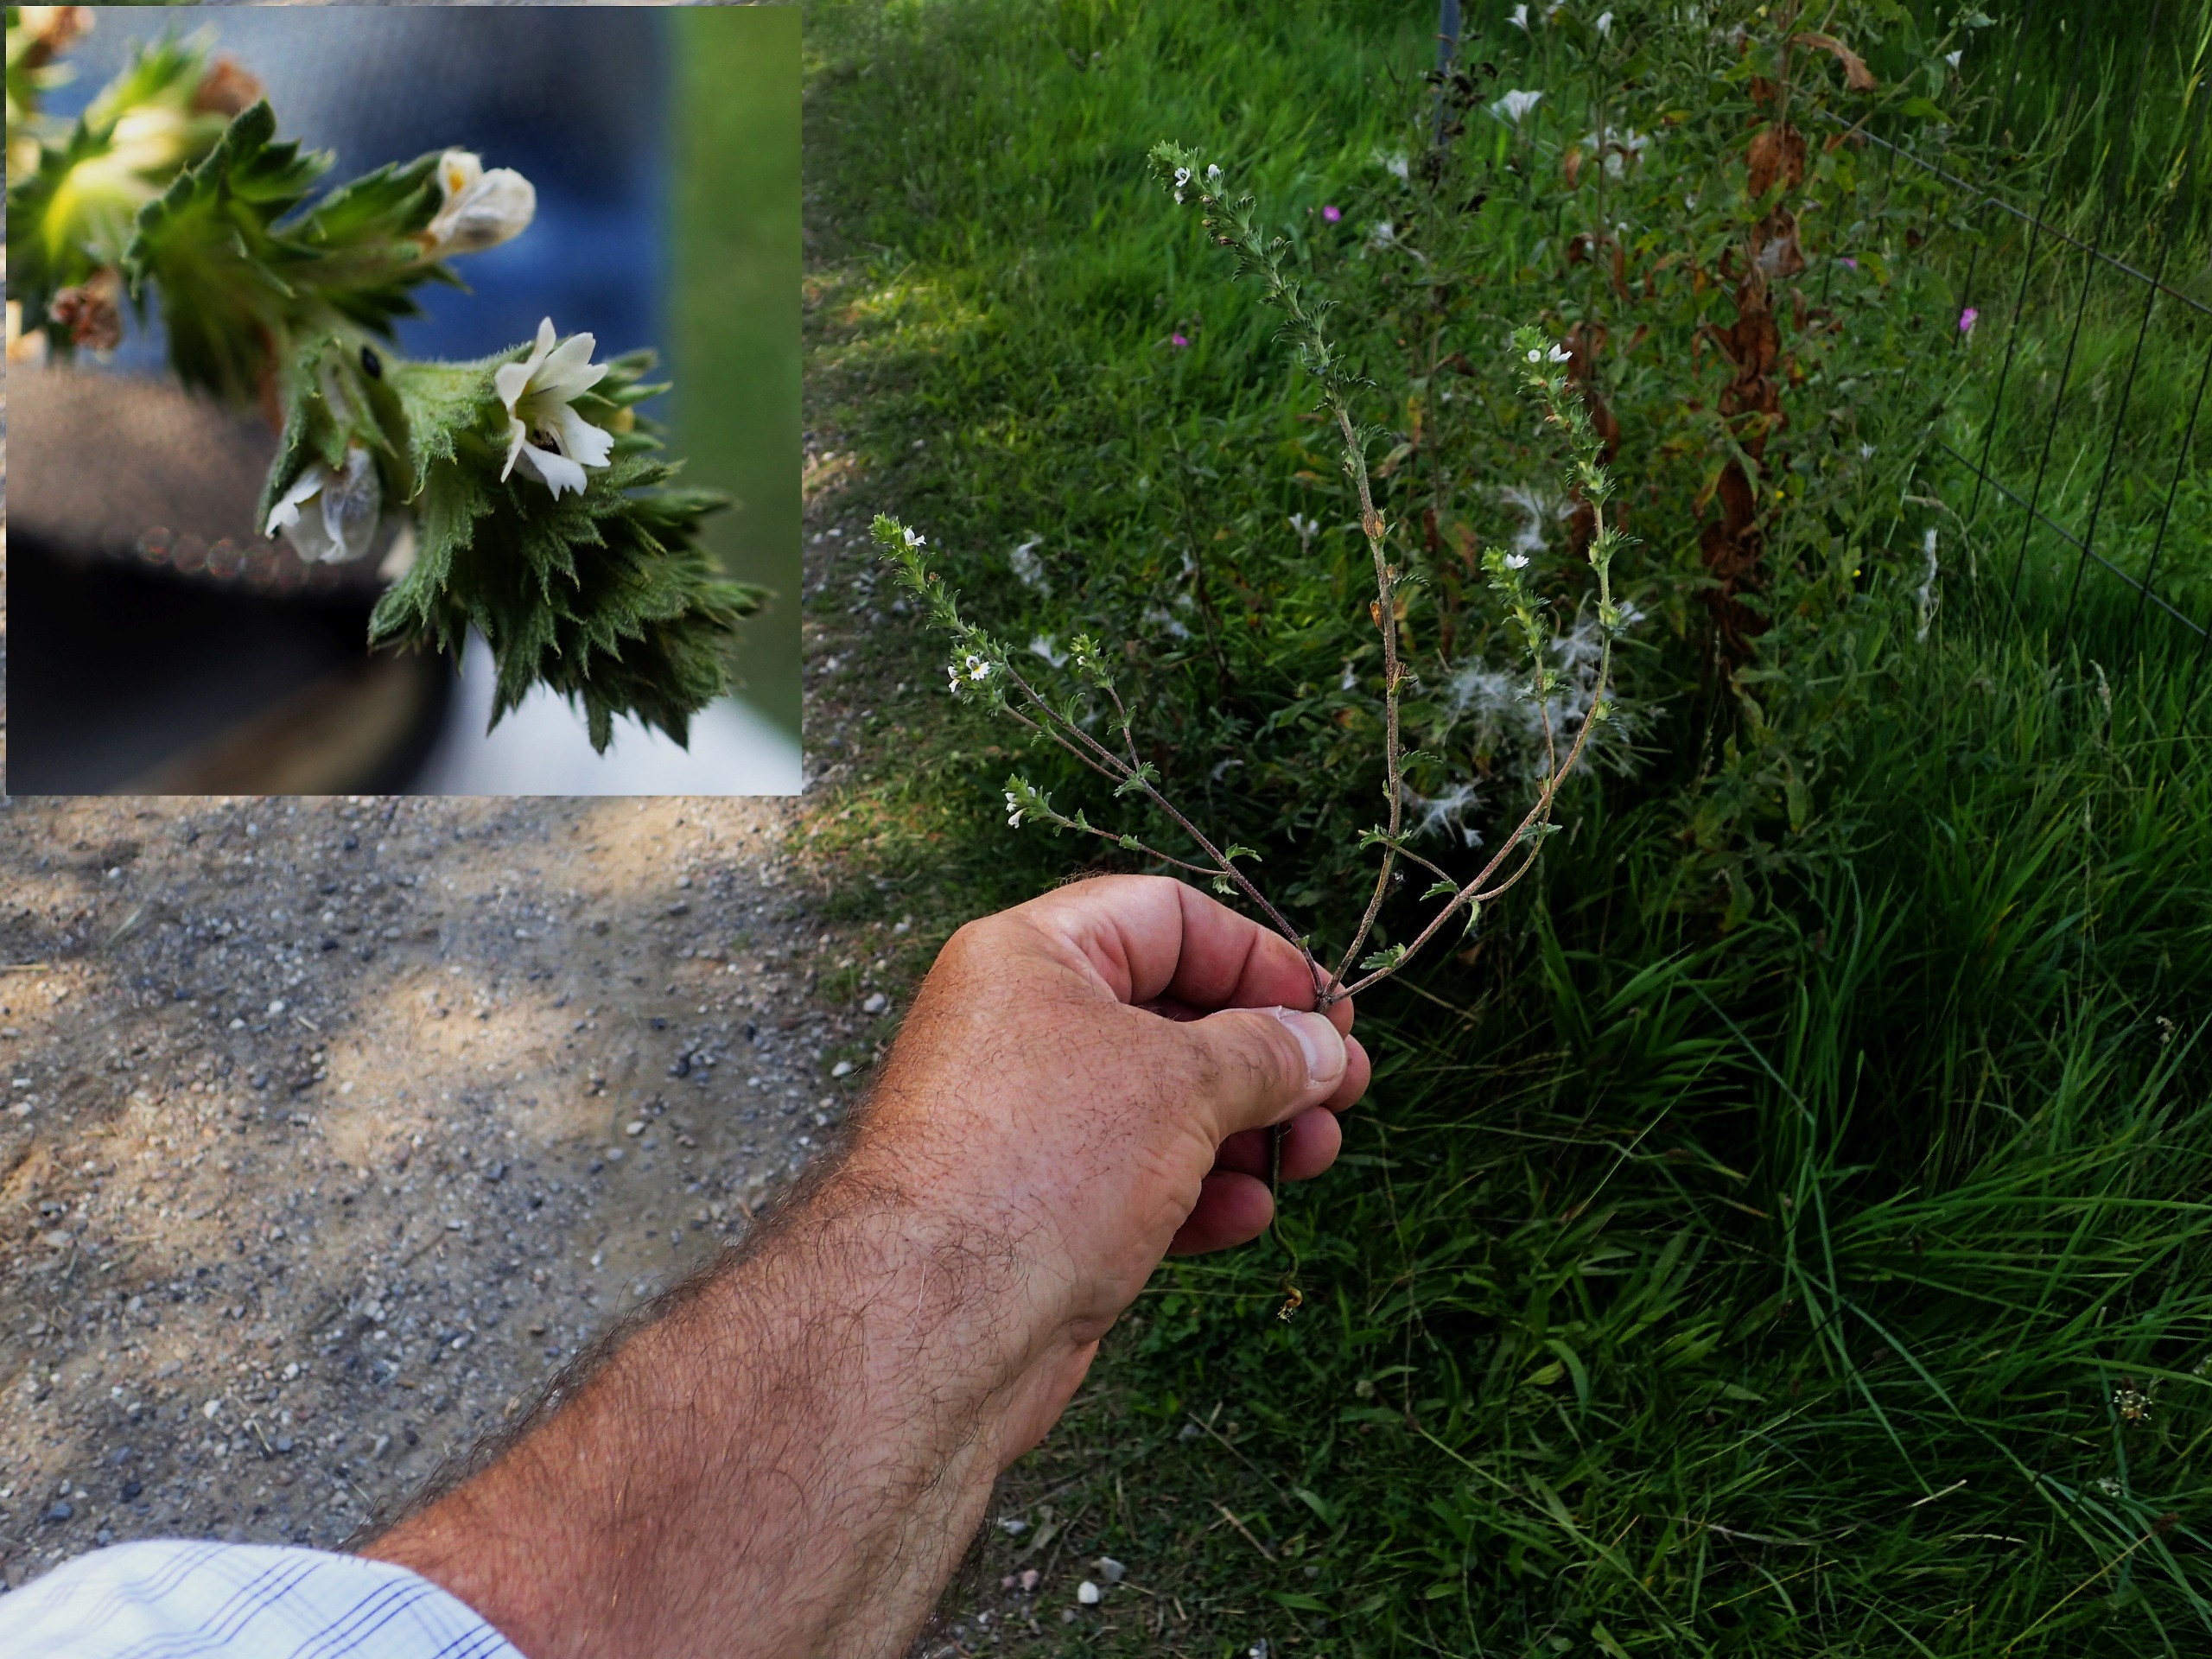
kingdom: Plantae
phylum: Tracheophyta
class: Magnoliopsida
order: Lamiales
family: Orobanchaceae
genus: Euphrasia
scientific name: Euphrasia stricta
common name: Spids øjentrøst
